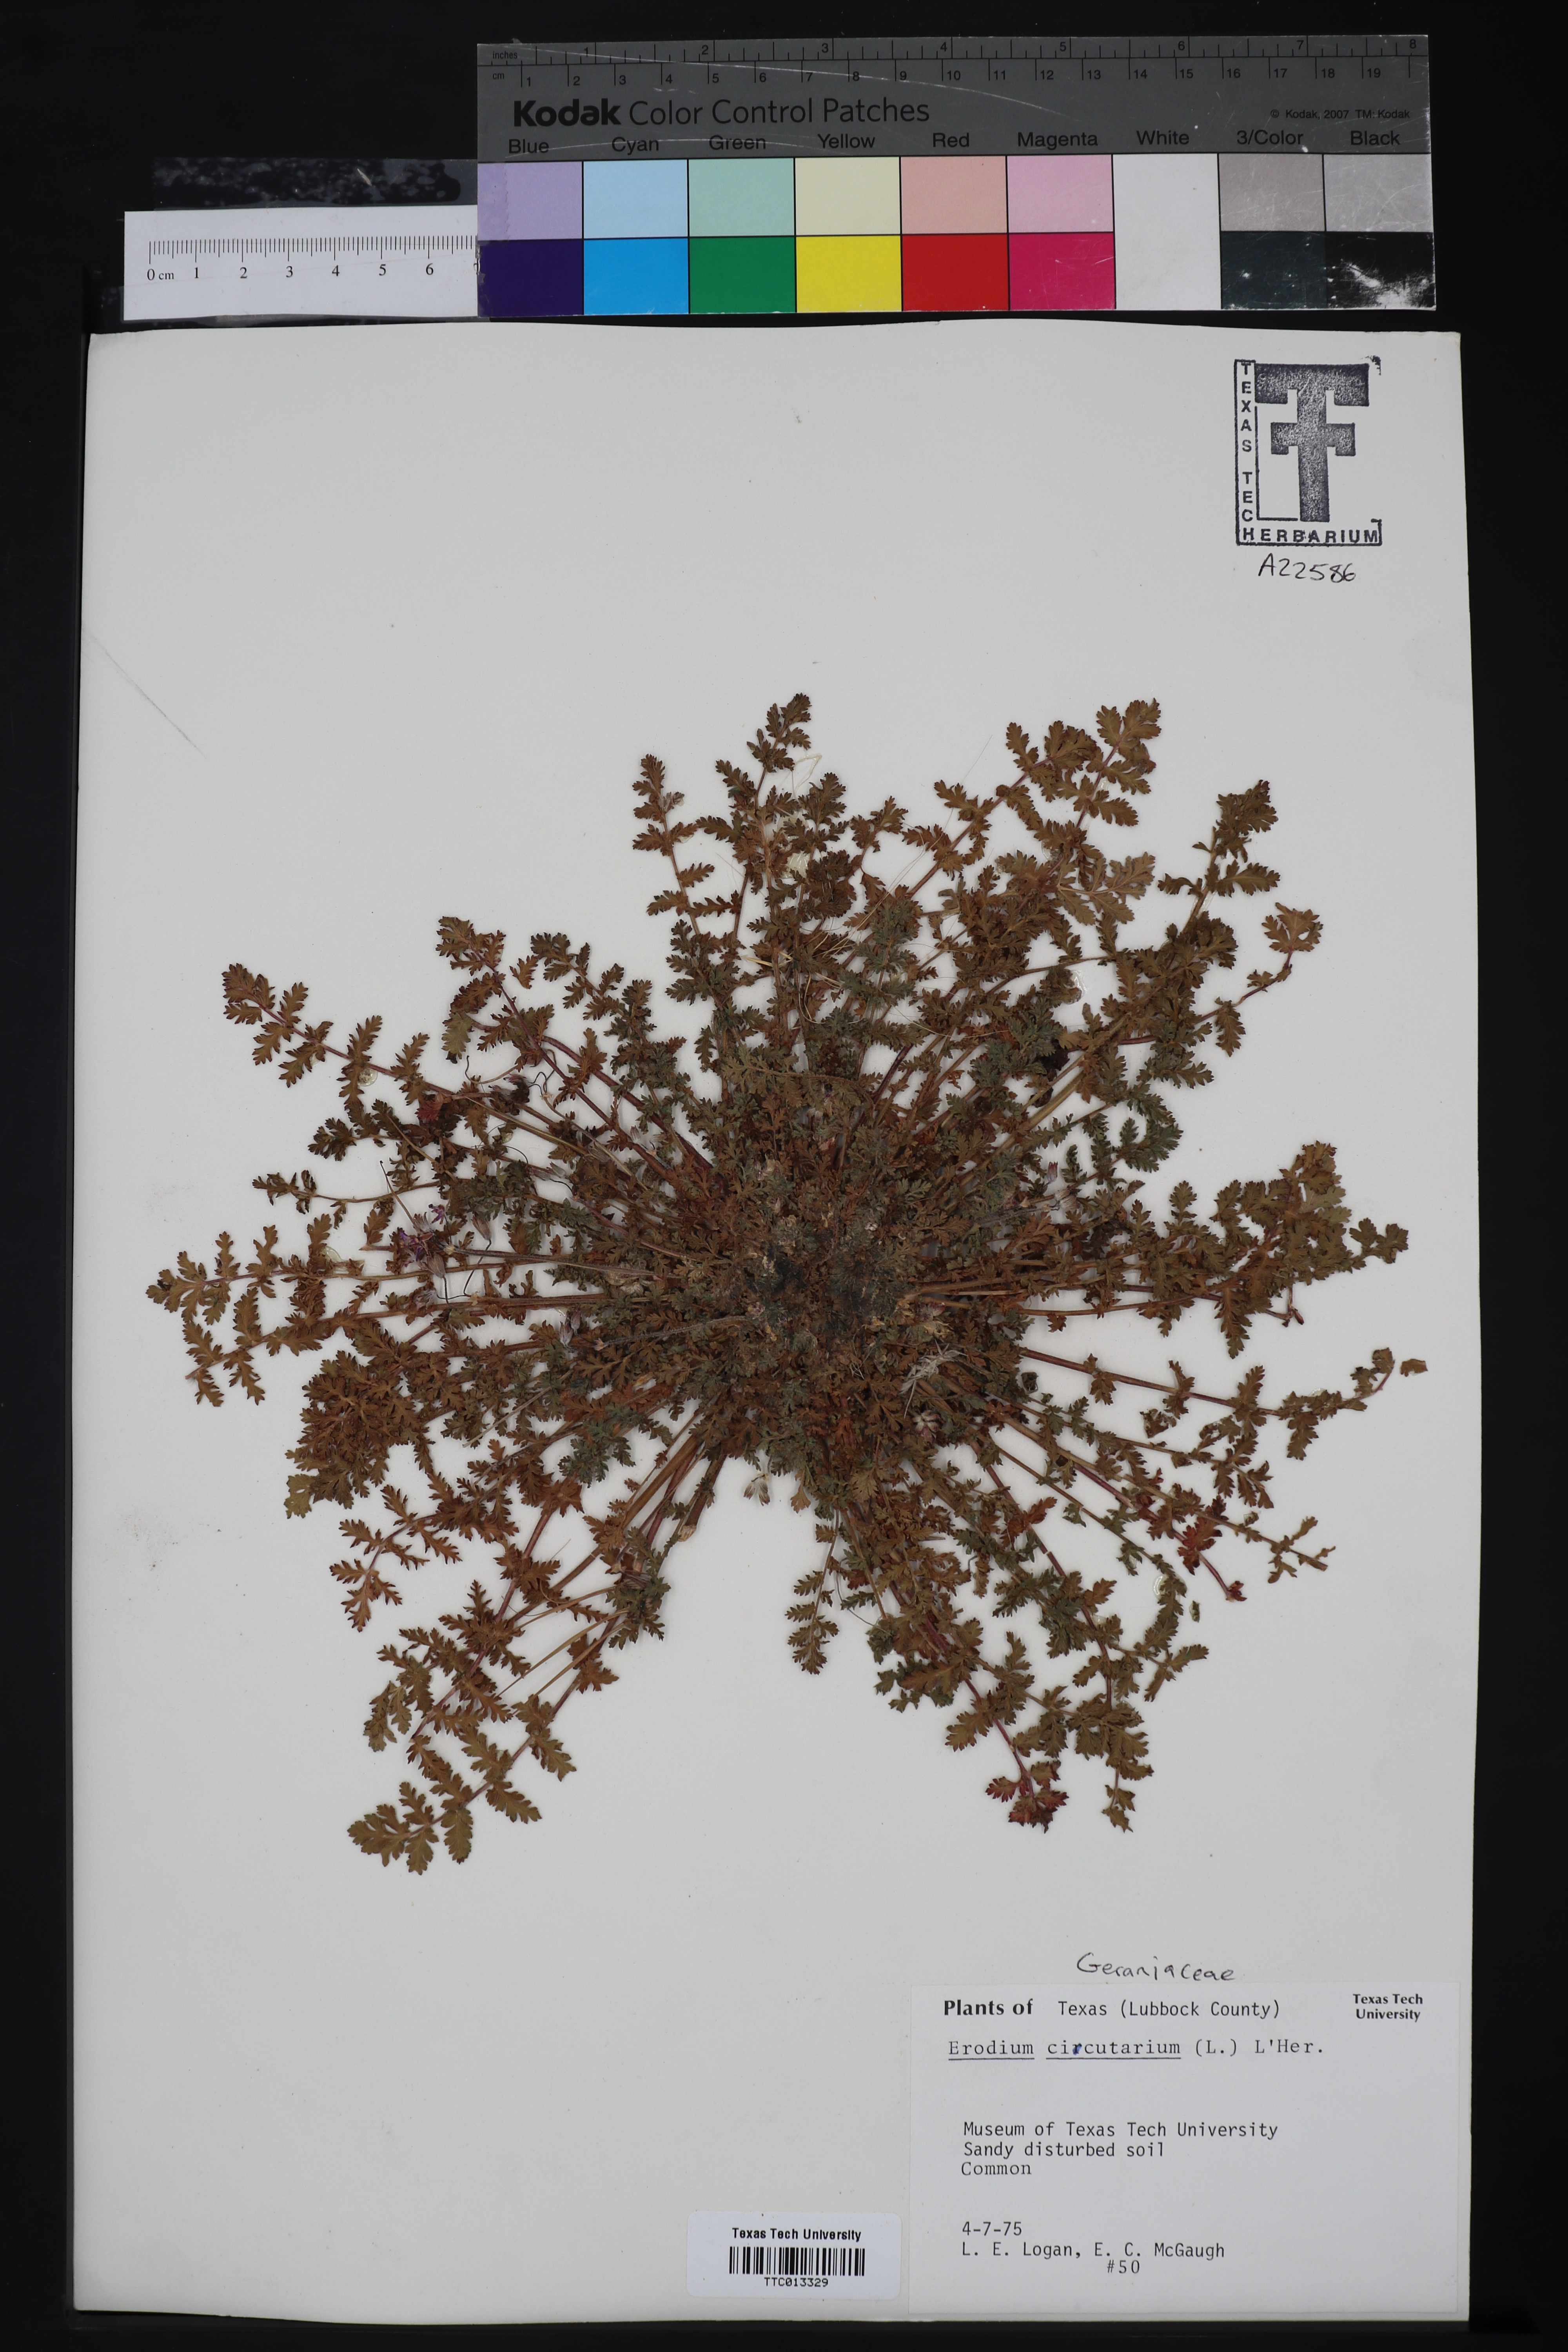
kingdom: Plantae
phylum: Tracheophyta
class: Magnoliopsida
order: Geraniales
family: Geraniaceae
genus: Erodium
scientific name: Erodium cicutarium
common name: Common stork's-bill
